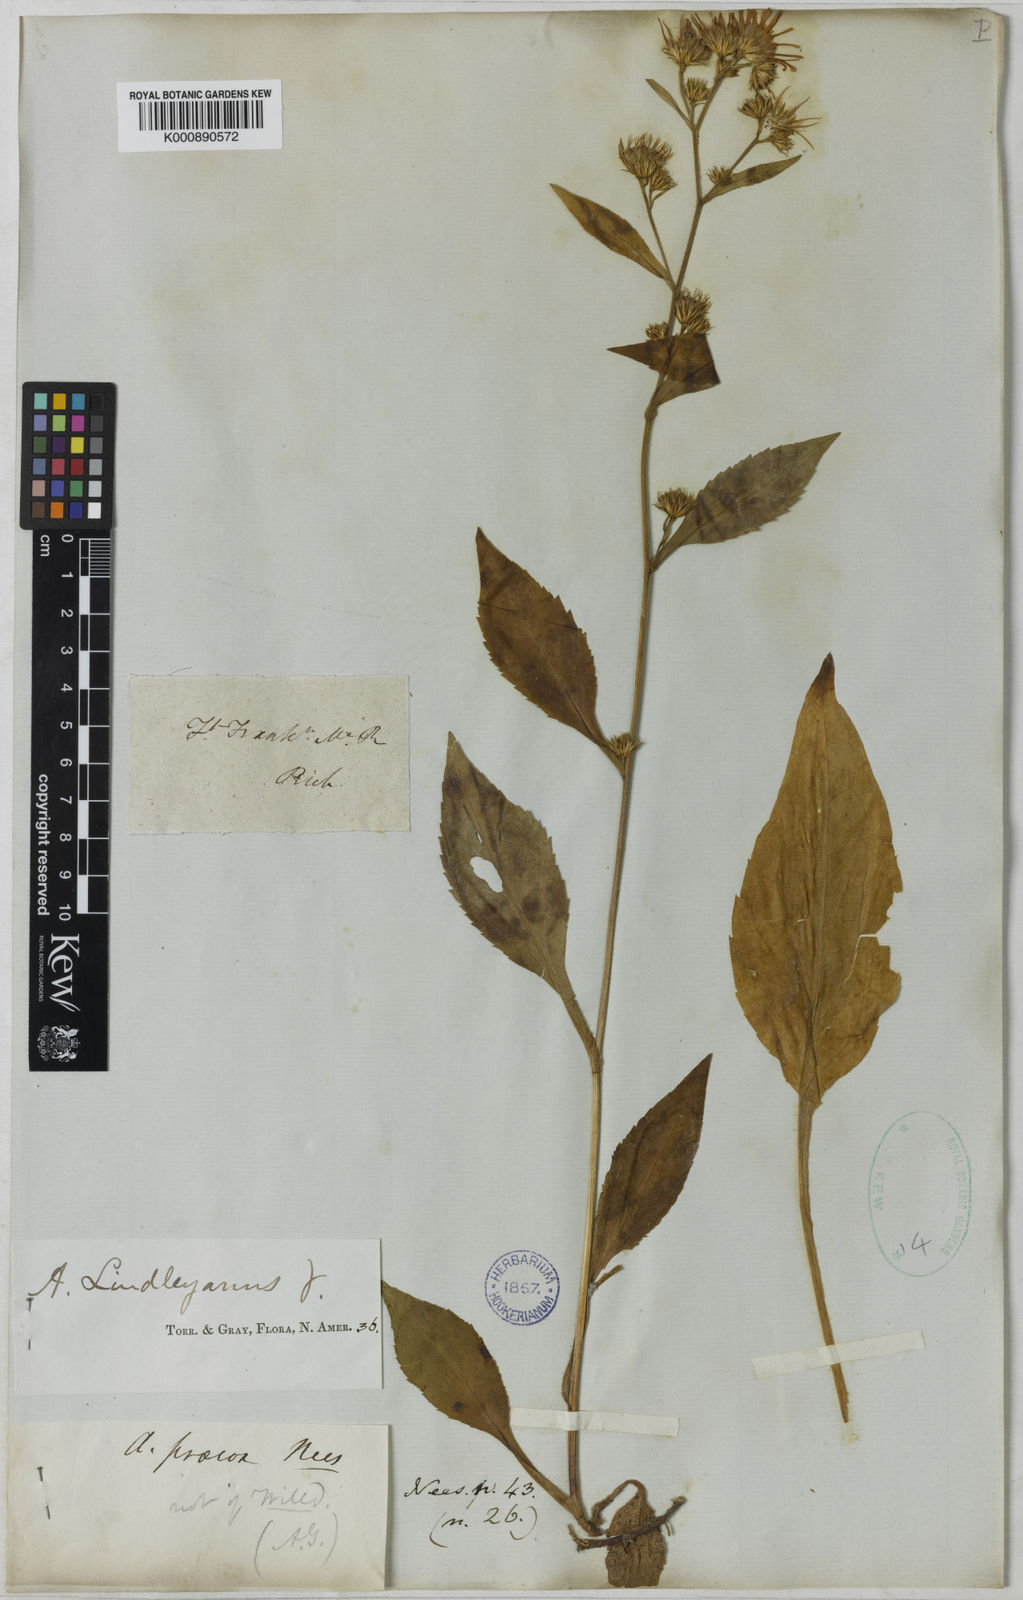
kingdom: Plantae
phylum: Tracheophyta
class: Magnoliopsida
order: Asterales
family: Asteraceae
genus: Symphyotrichum
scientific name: Symphyotrichum ciliolatum
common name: Fringed blue aster
